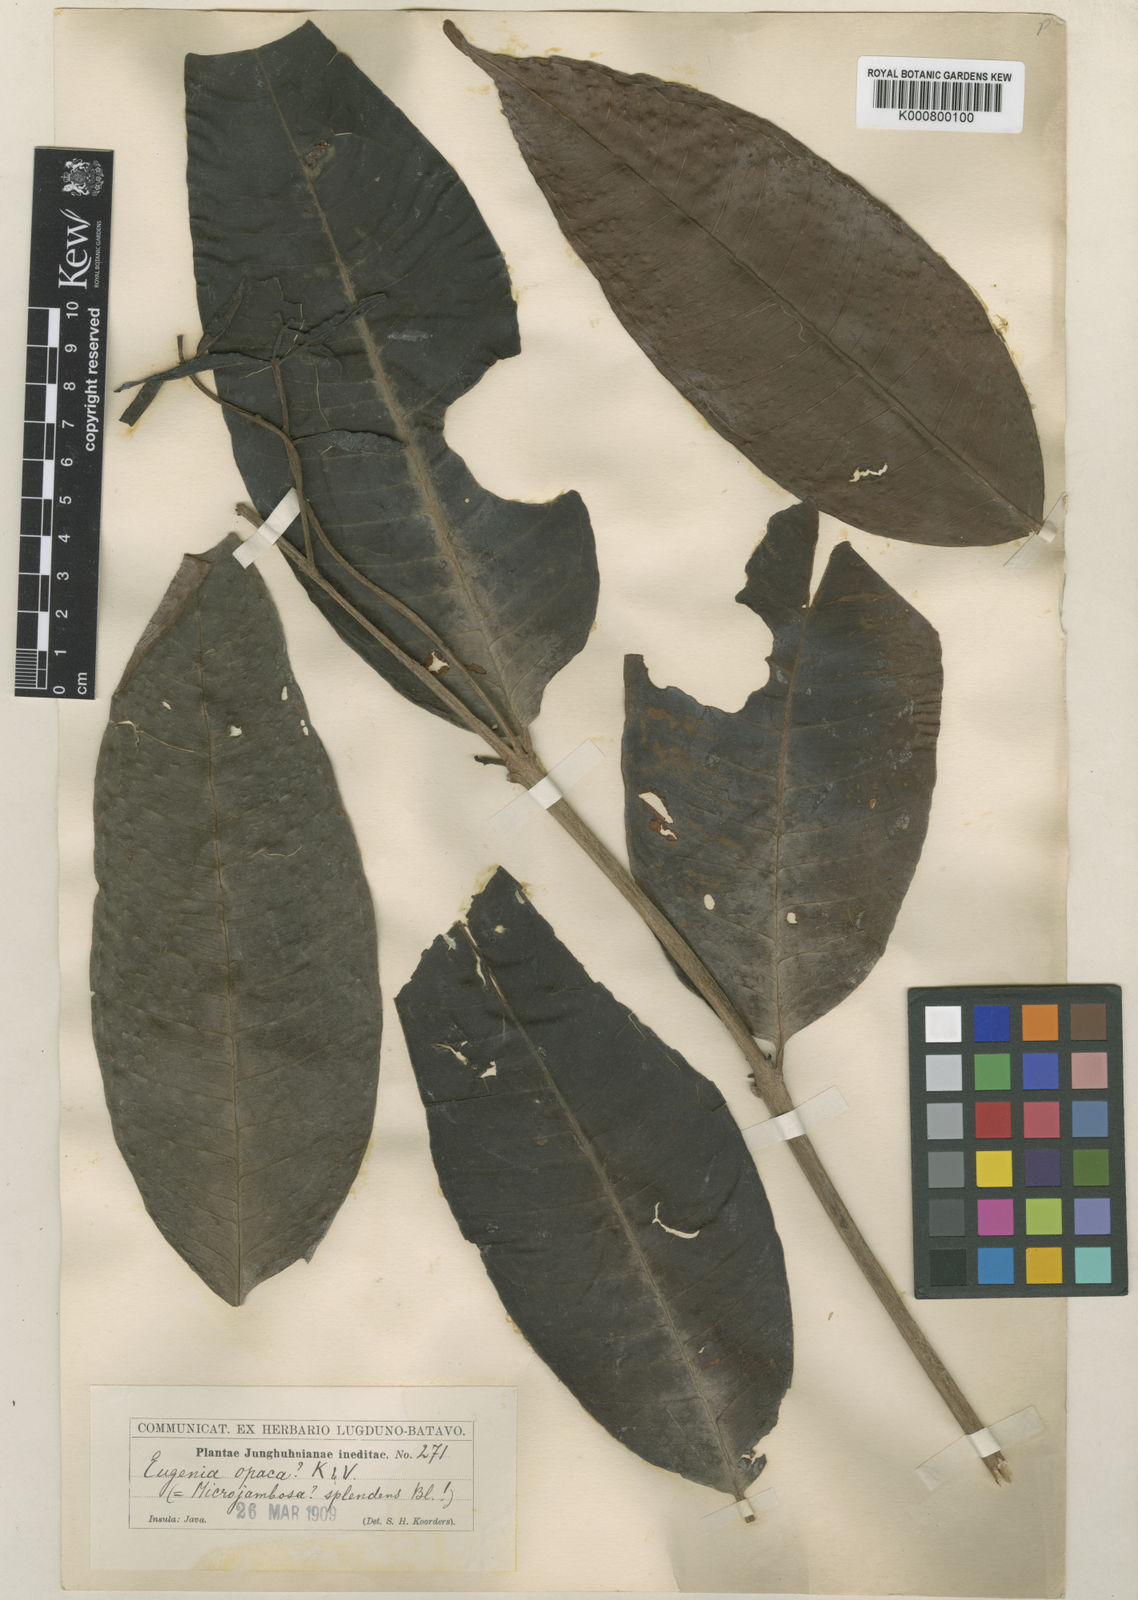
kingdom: Plantae
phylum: Tracheophyta
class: Magnoliopsida
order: Myrtales
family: Myrtaceae
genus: Syzygium
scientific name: Syzygium splendens
